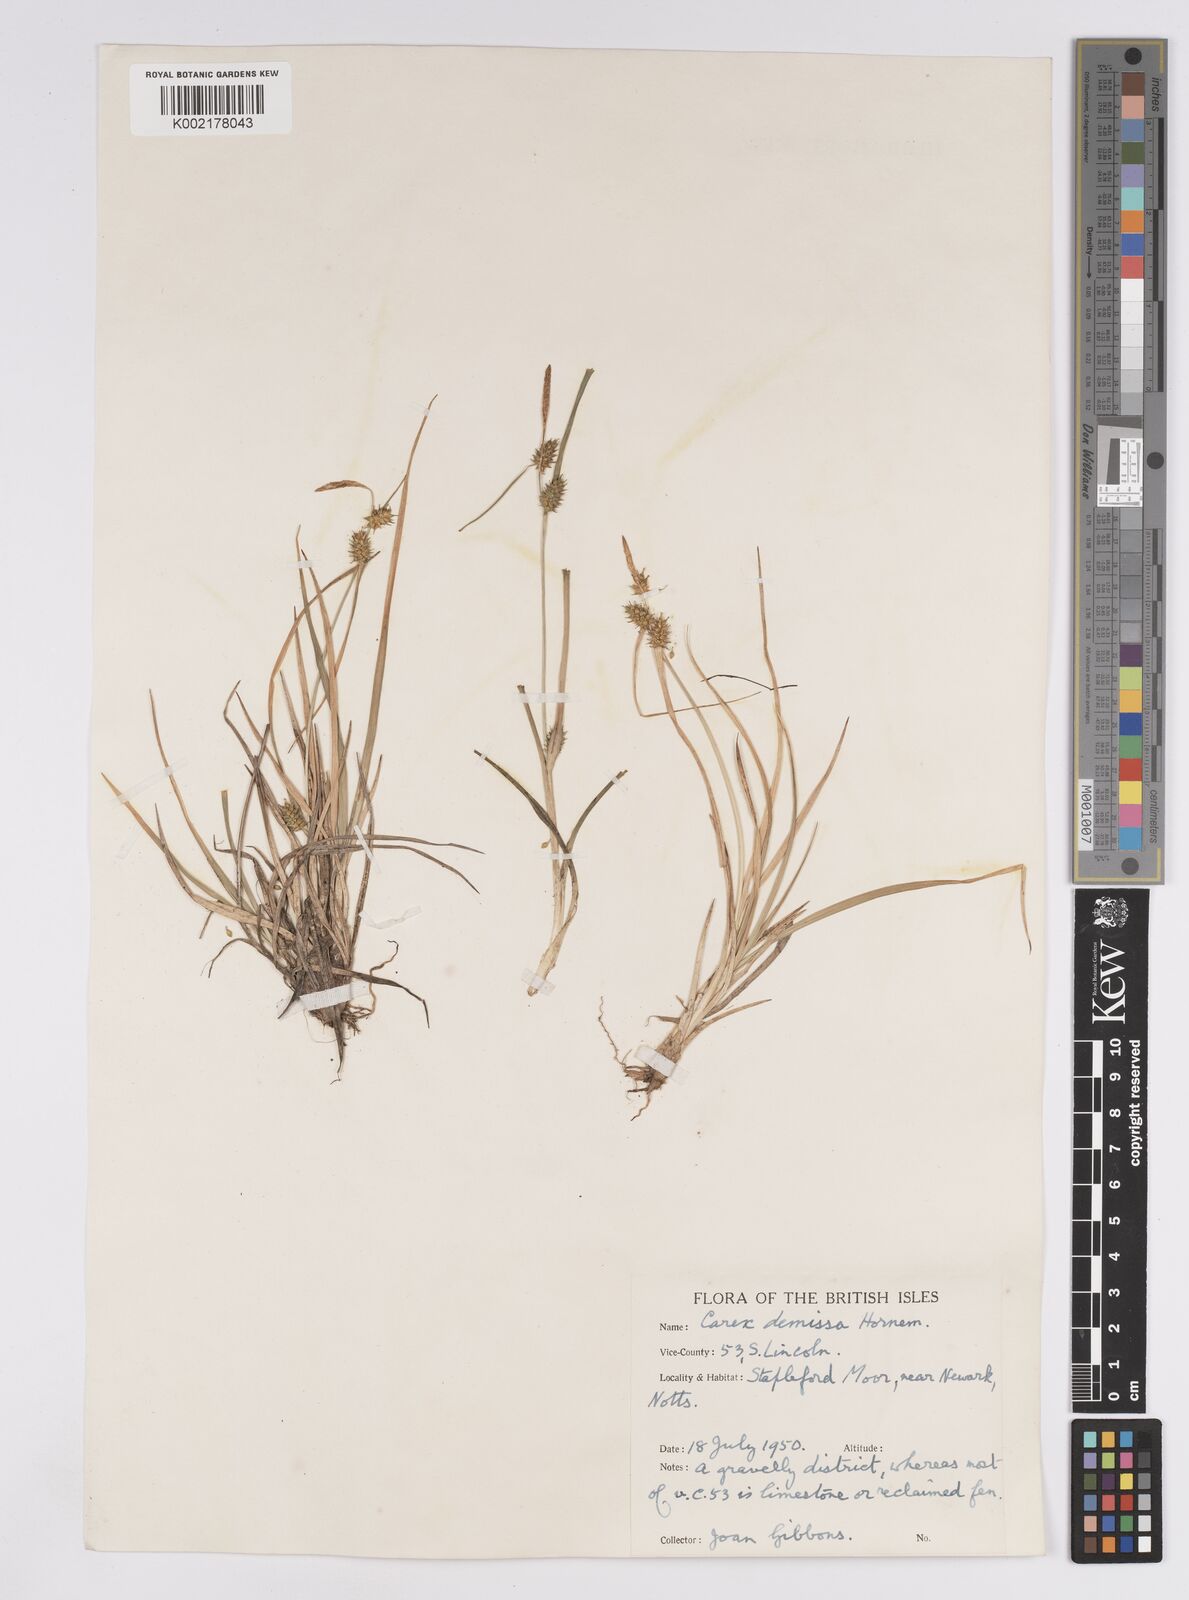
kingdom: Plantae
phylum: Tracheophyta
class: Liliopsida
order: Poales
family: Cyperaceae
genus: Carex
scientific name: Carex demissa
